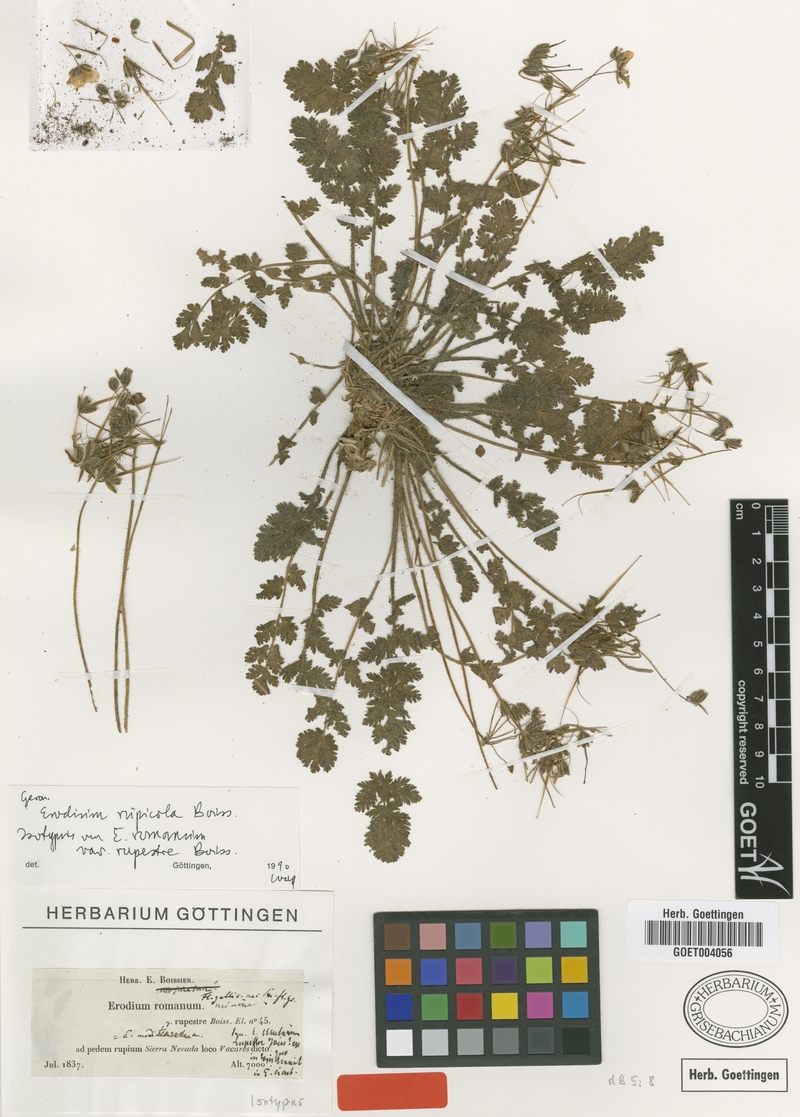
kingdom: Plantae
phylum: Tracheophyta
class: Magnoliopsida
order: Geraniales
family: Geraniaceae
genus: Erodium
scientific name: Erodium rupicola
